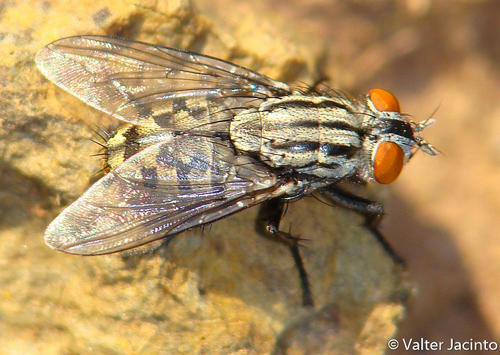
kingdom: Animalia
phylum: Arthropoda
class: Insecta
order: Diptera
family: Sarcophagidae
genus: Sarcophaga
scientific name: Sarcophaga dux
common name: Flesh fly
